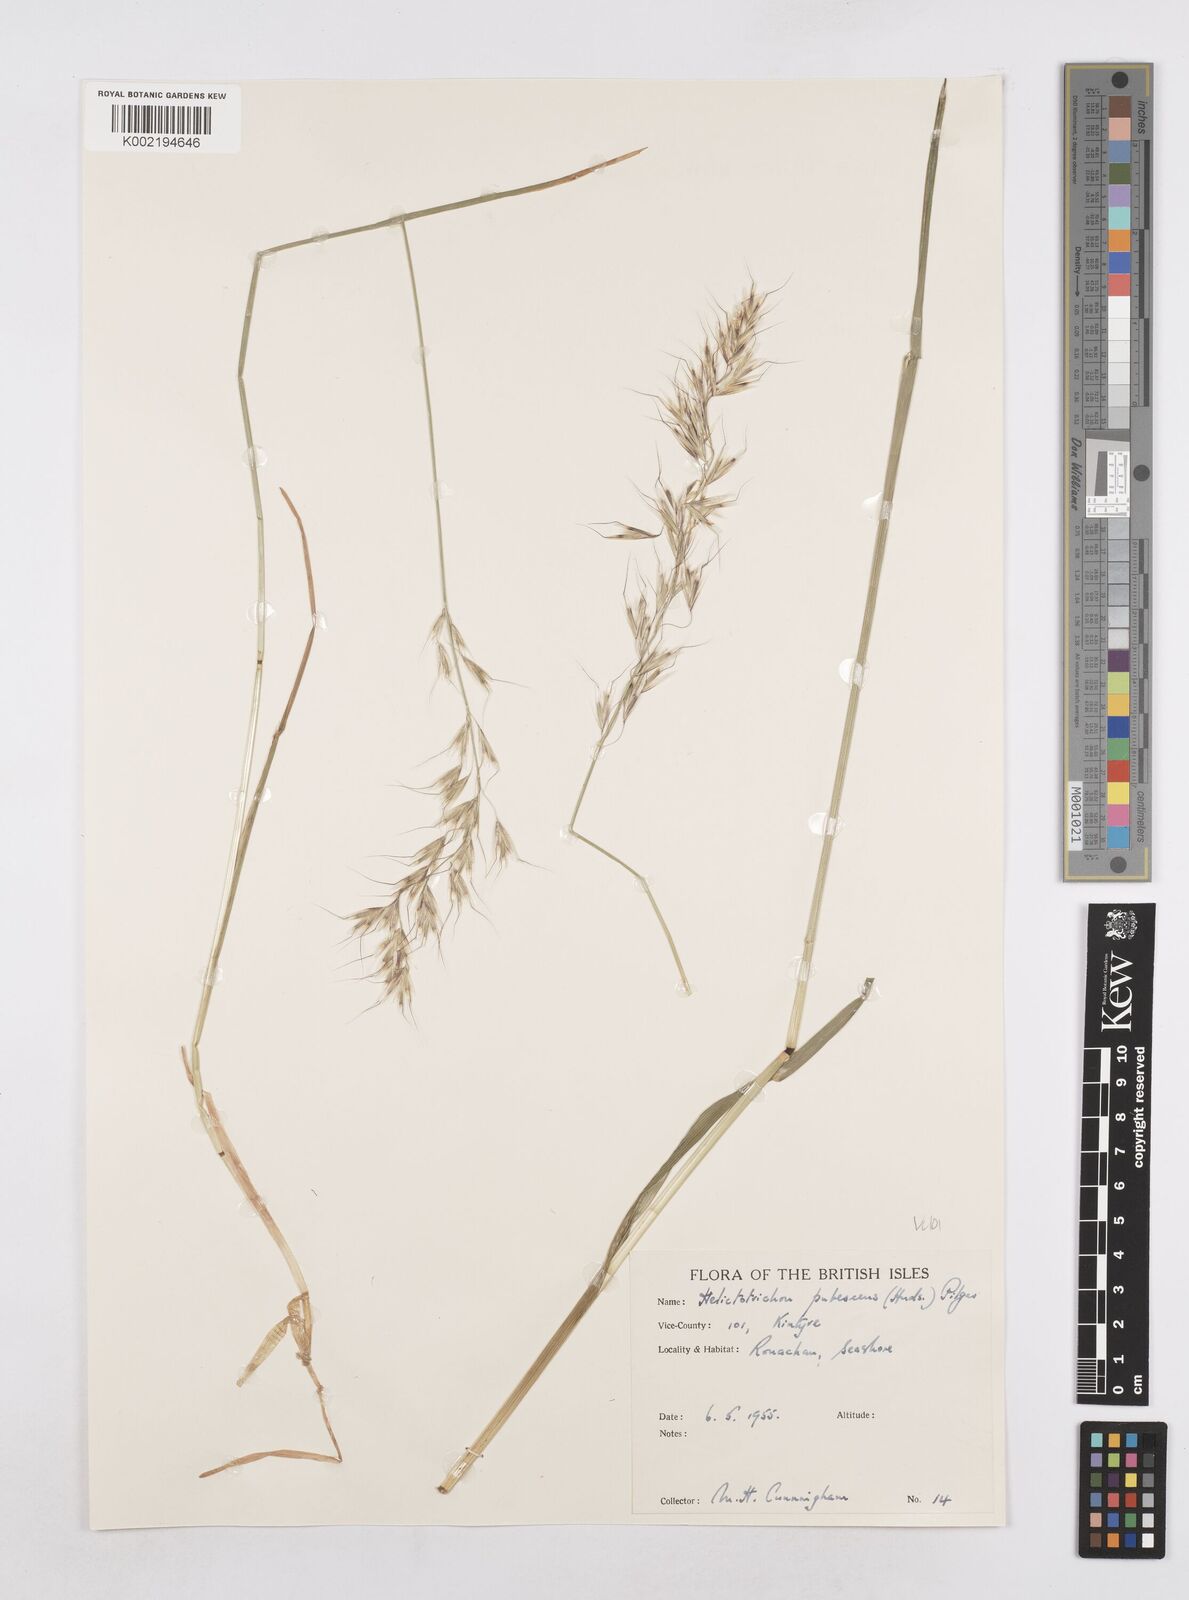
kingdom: Plantae
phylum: Tracheophyta
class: Liliopsida
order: Poales
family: Poaceae
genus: Avenula
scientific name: Avenula pubescens
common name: Downy alpine oatgrass
